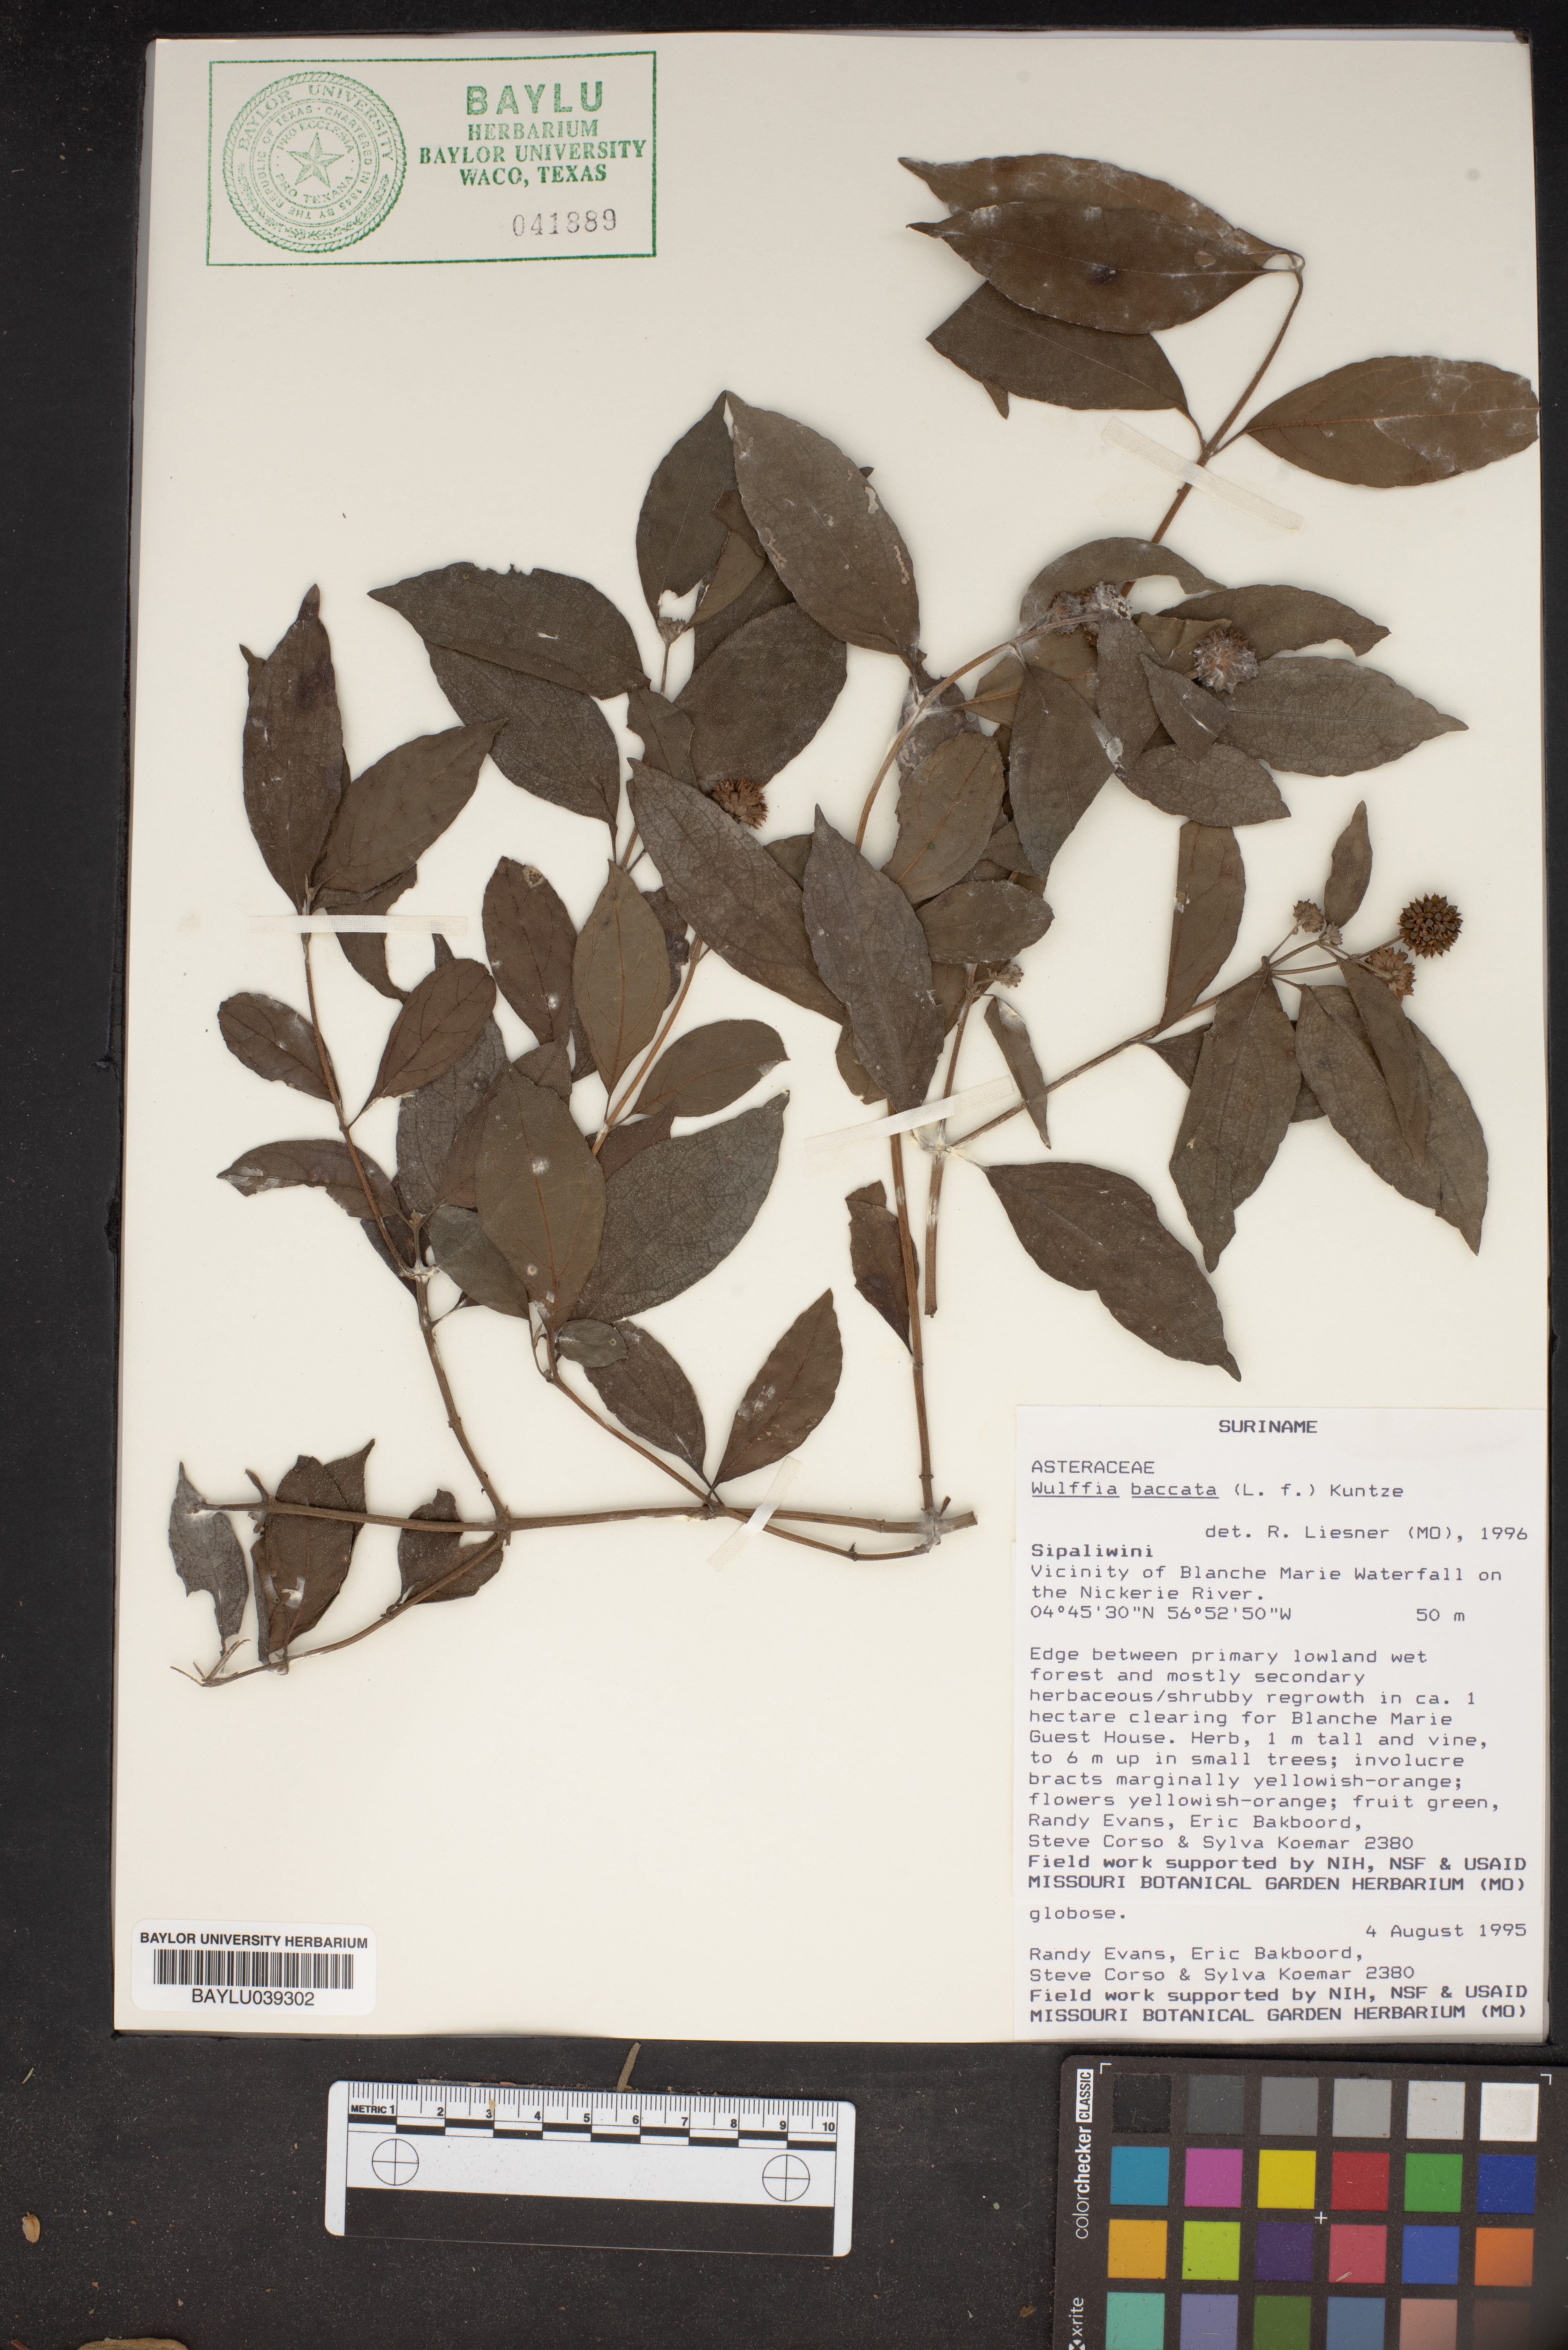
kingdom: Plantae
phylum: Tracheophyta
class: Magnoliopsida
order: Asterales
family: Asteraceae
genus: Tilesia
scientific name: Tilesia baccata
